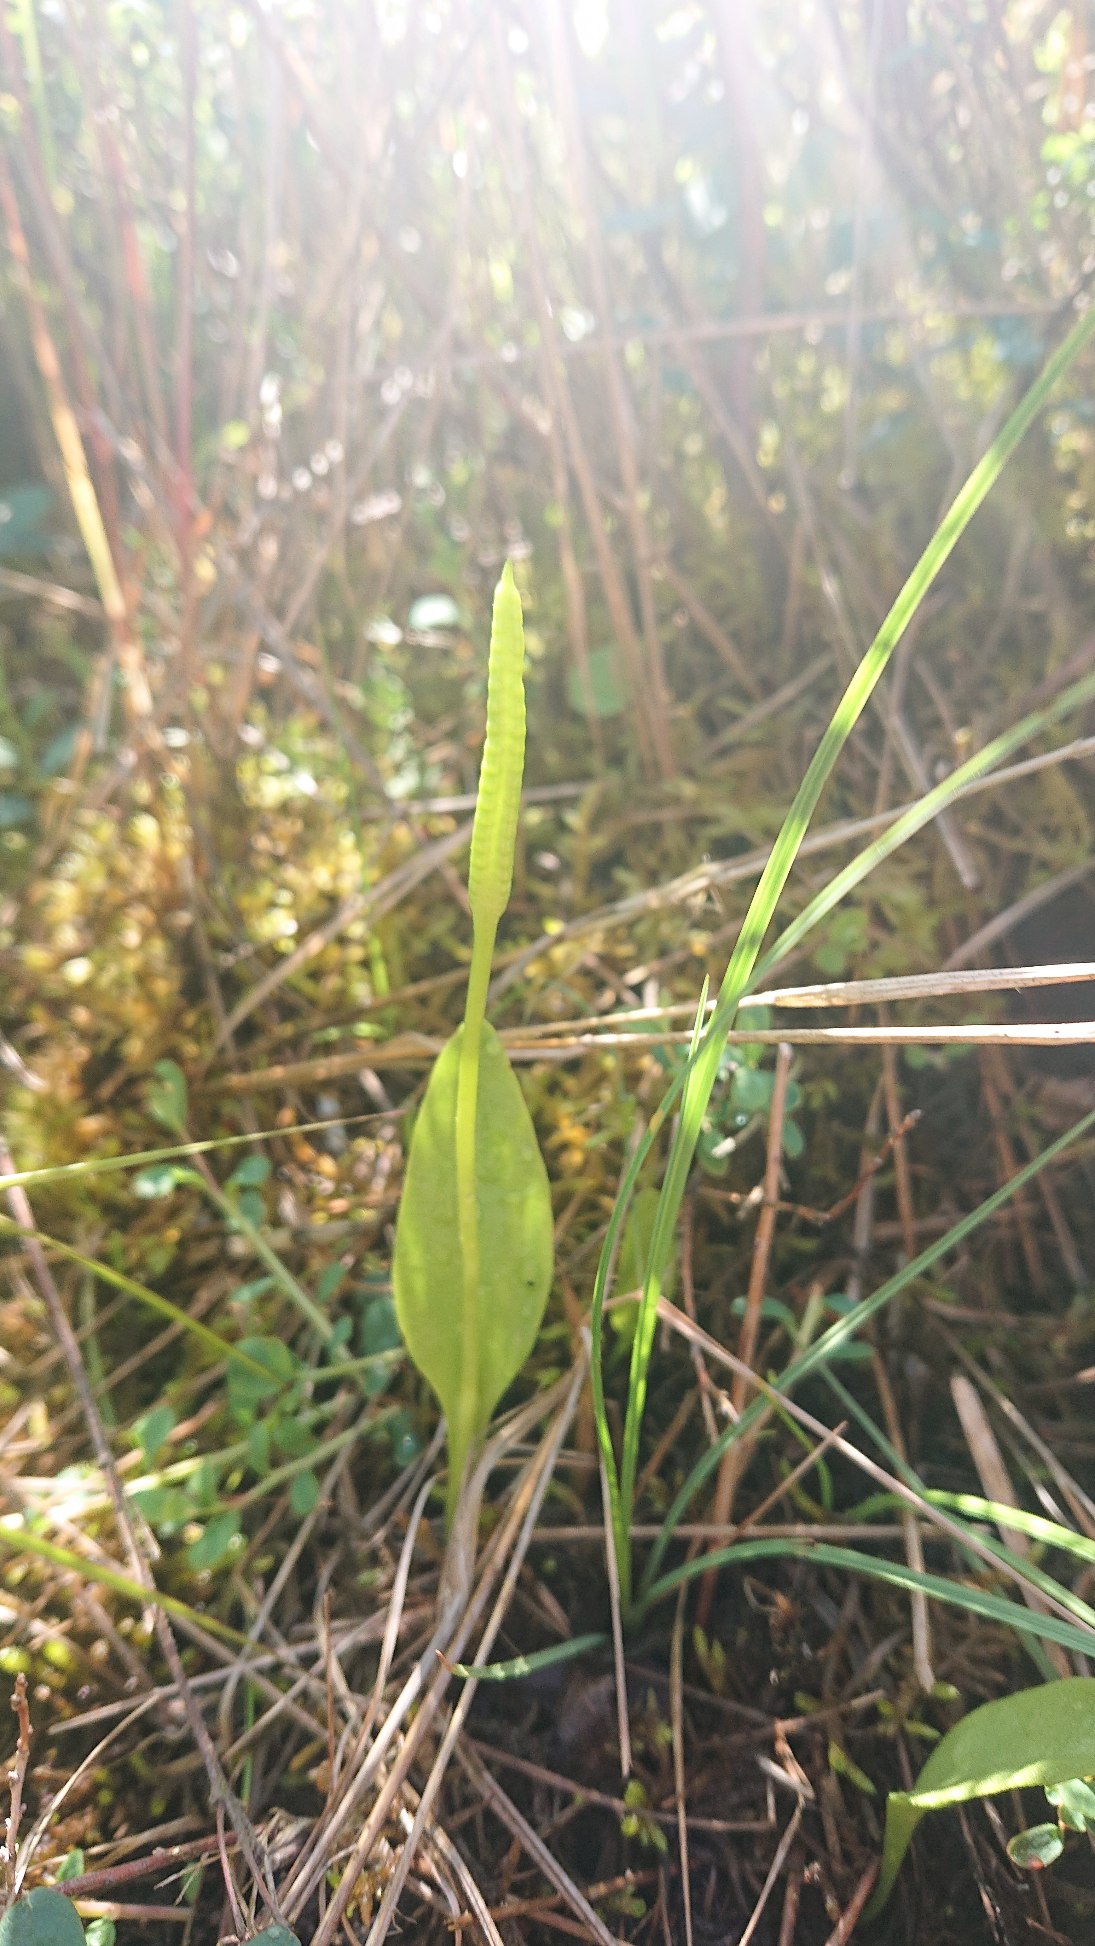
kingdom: Plantae
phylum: Tracheophyta
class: Polypodiopsida
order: Ophioglossales
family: Ophioglossaceae
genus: Ophioglossum
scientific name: Ophioglossum vulgatum
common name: Slangetunge
